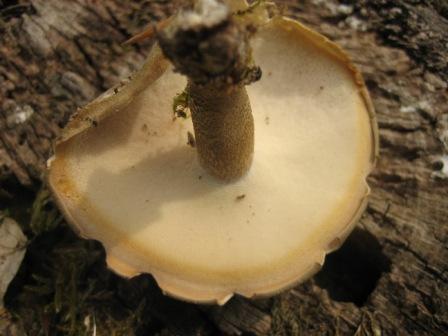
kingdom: Fungi
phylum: Basidiomycota
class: Agaricomycetes
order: Polyporales
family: Polyporaceae
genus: Lentinus
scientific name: Lentinus substrictus
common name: forårs-stilkporesvamp
